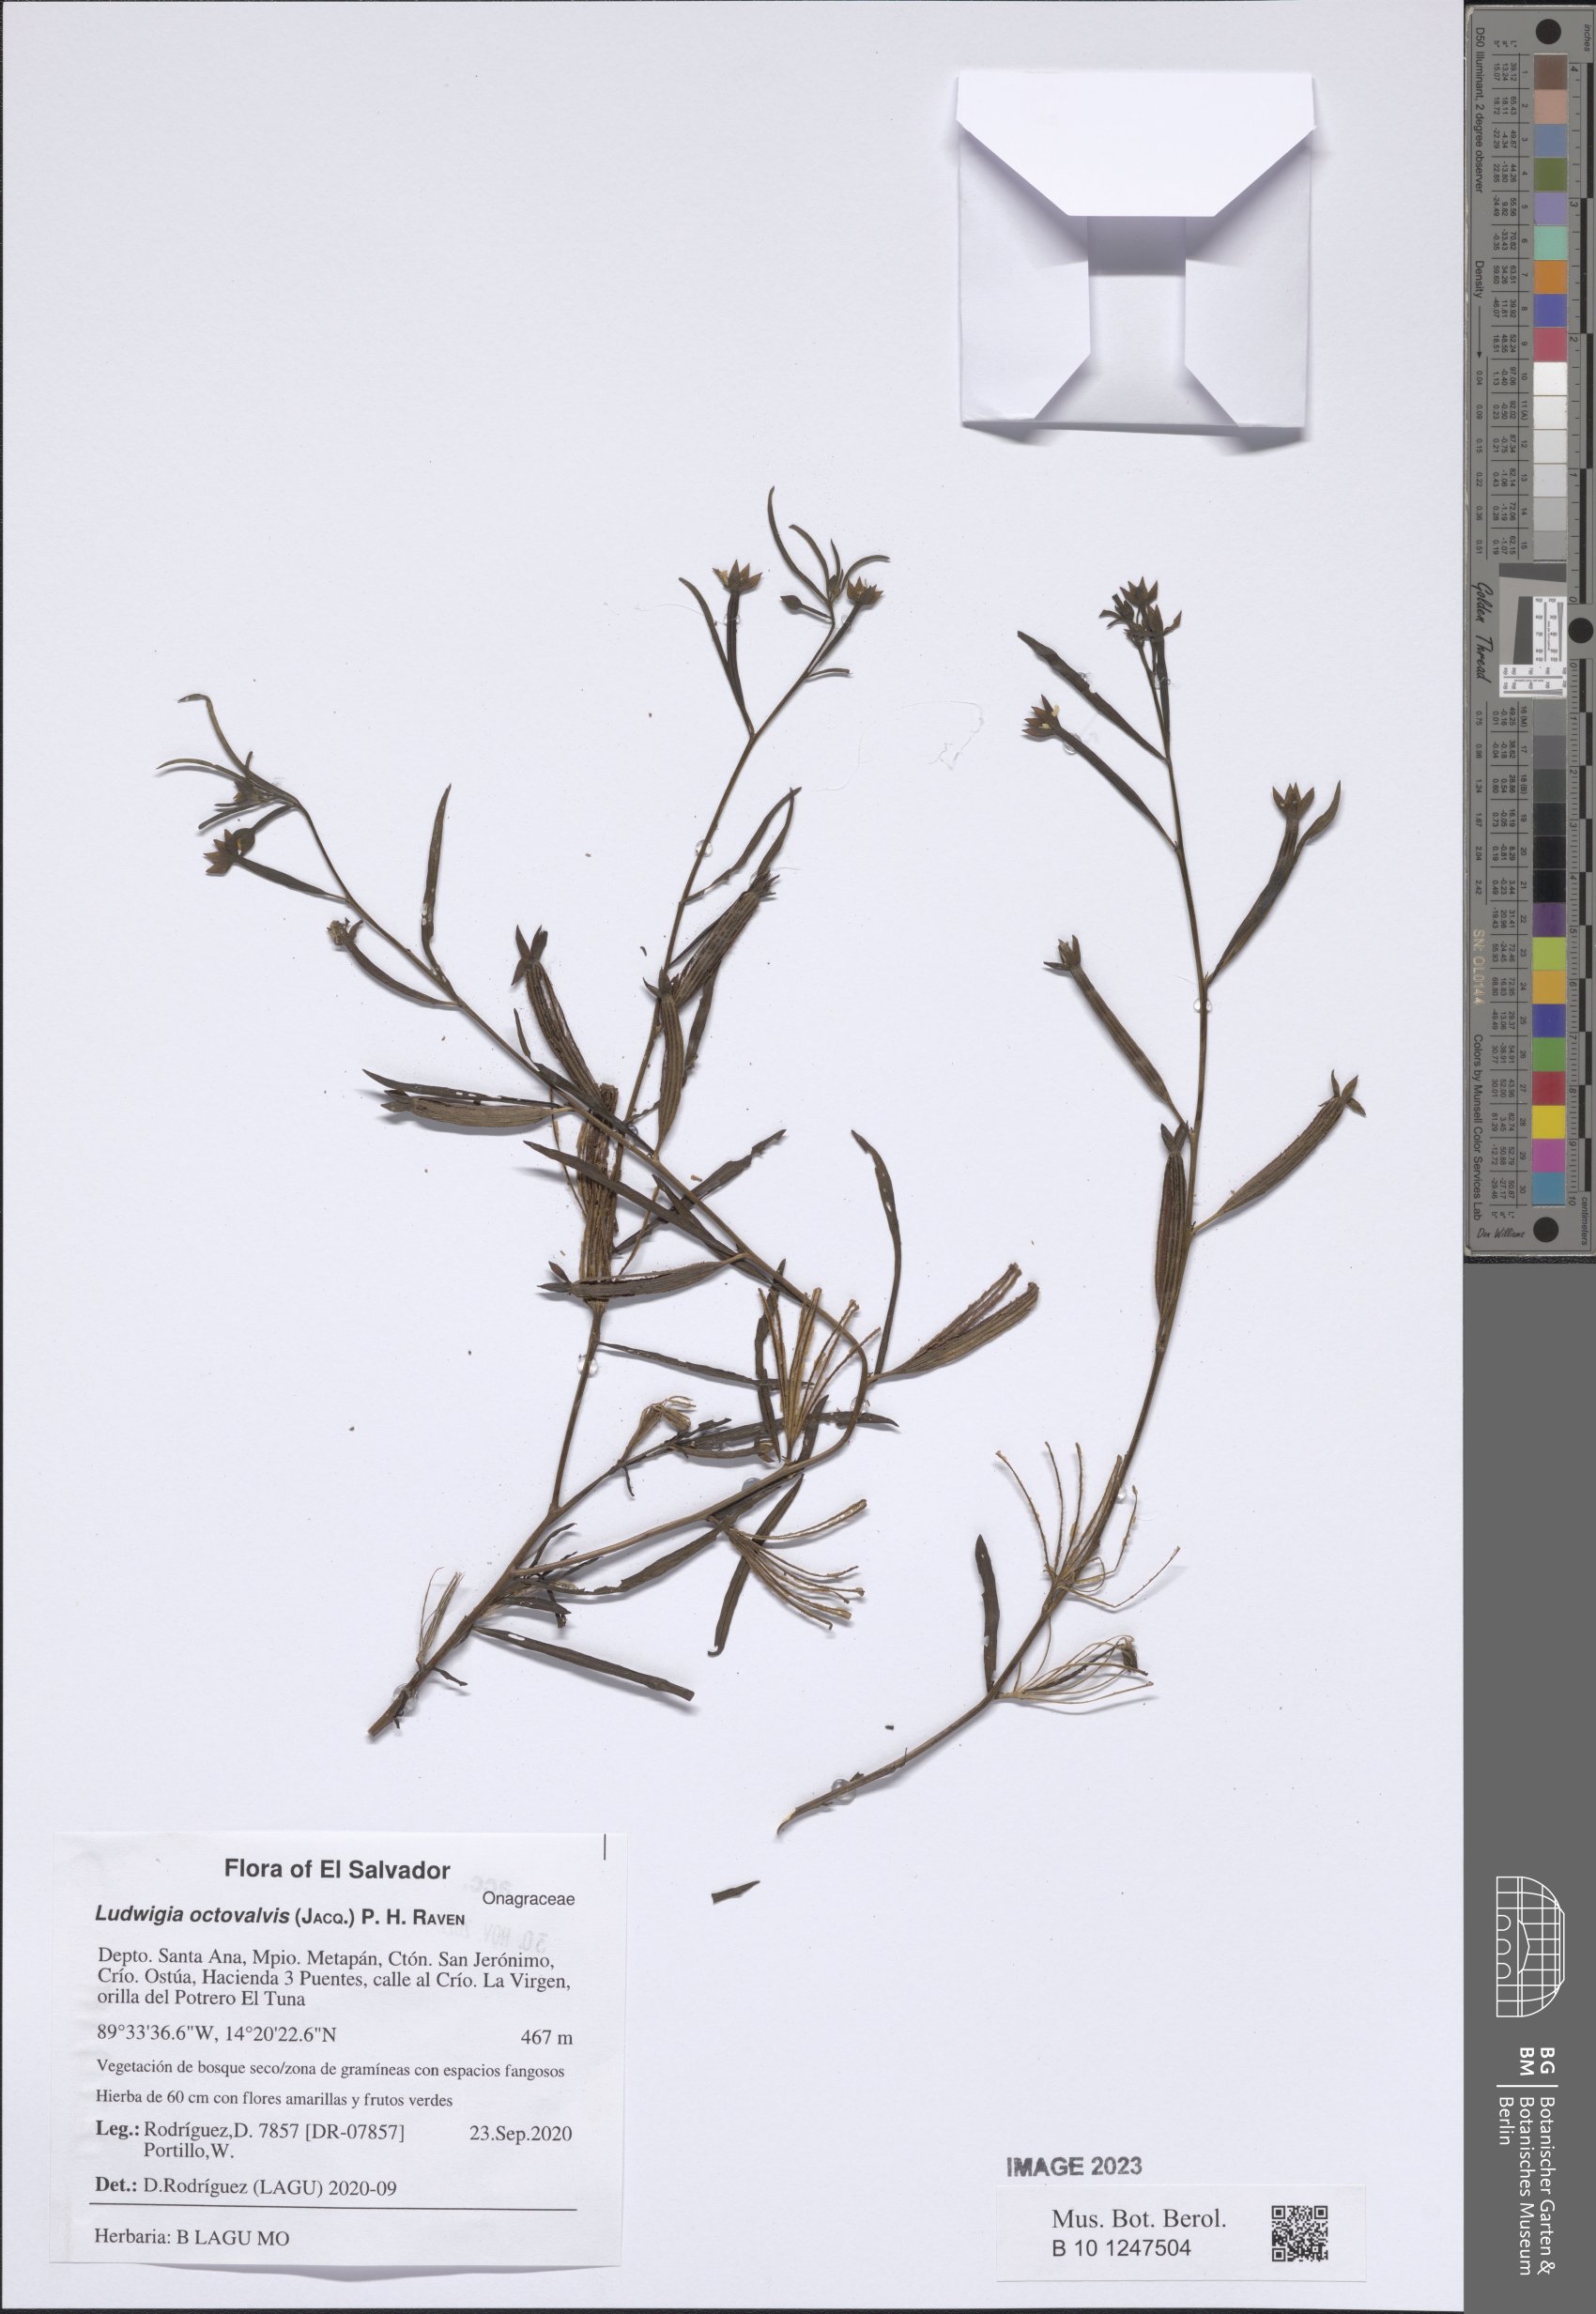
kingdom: Plantae
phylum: Tracheophyta
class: Magnoliopsida
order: Myrtales
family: Onagraceae
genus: Ludwigia
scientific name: Ludwigia octovalvis
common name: Water-primrose
